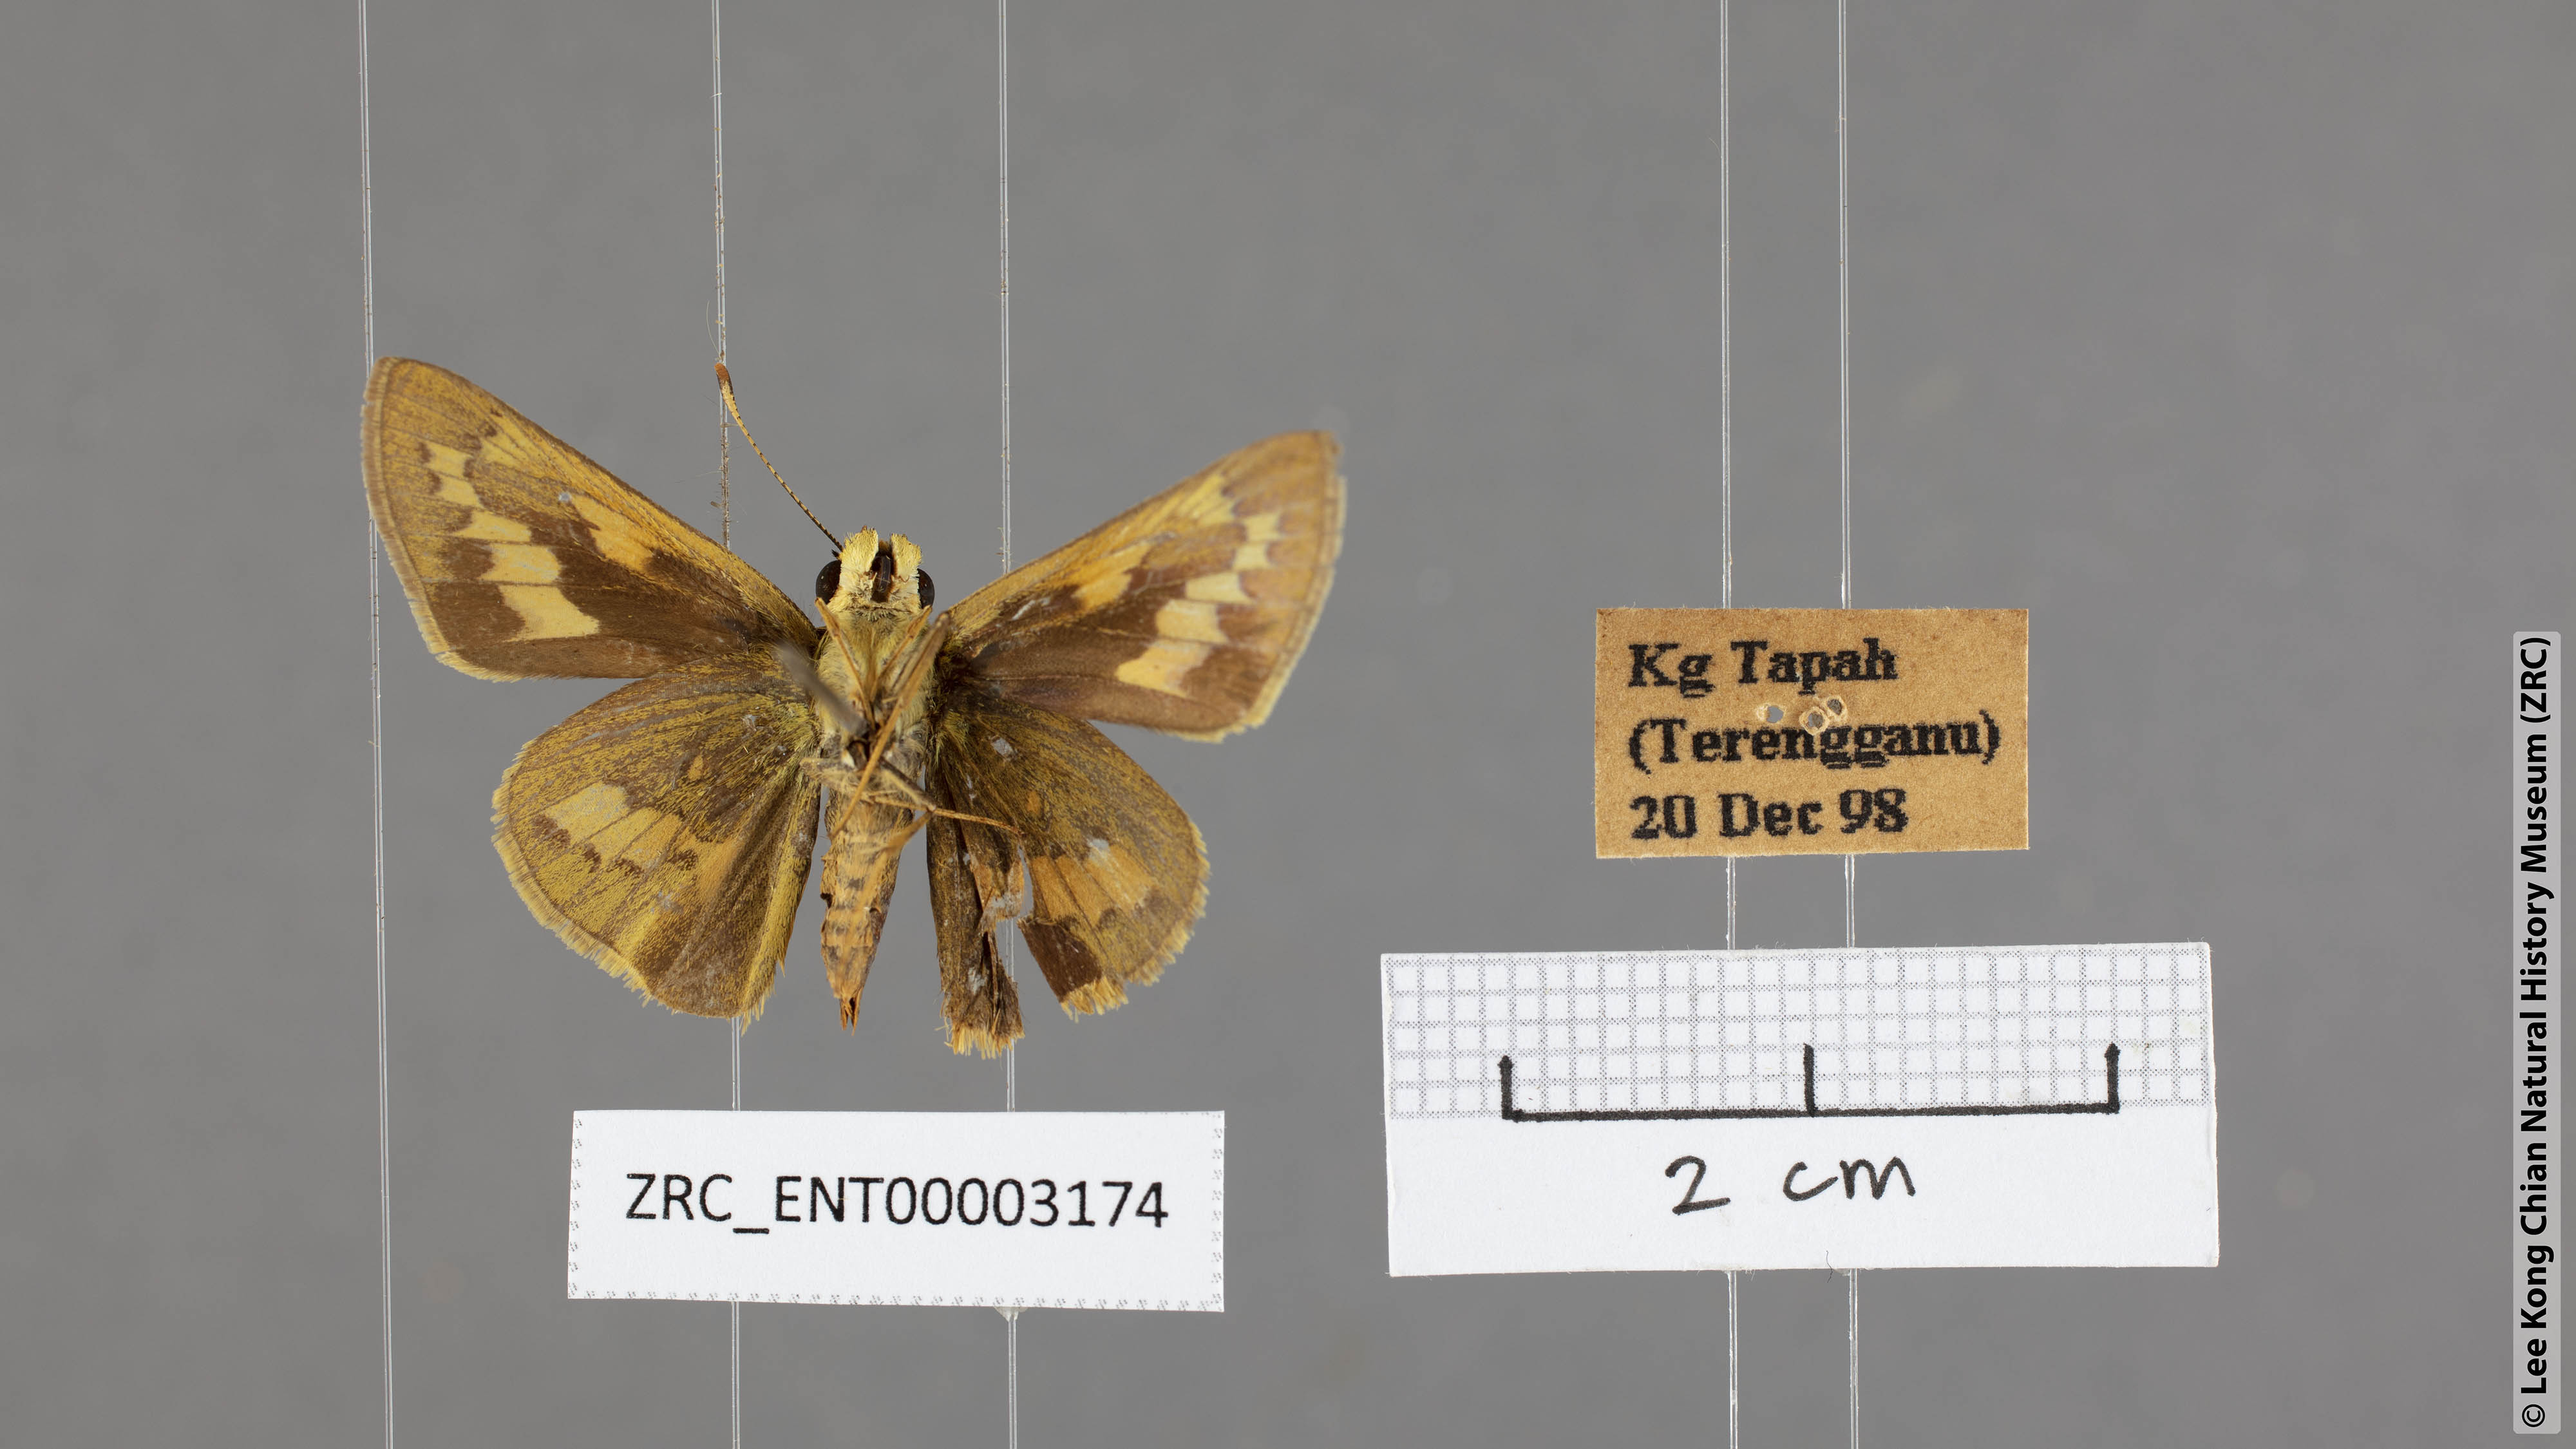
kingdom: Animalia
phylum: Arthropoda
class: Insecta
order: Lepidoptera
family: Hesperiidae
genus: Cephrenes
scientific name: Cephrenes
